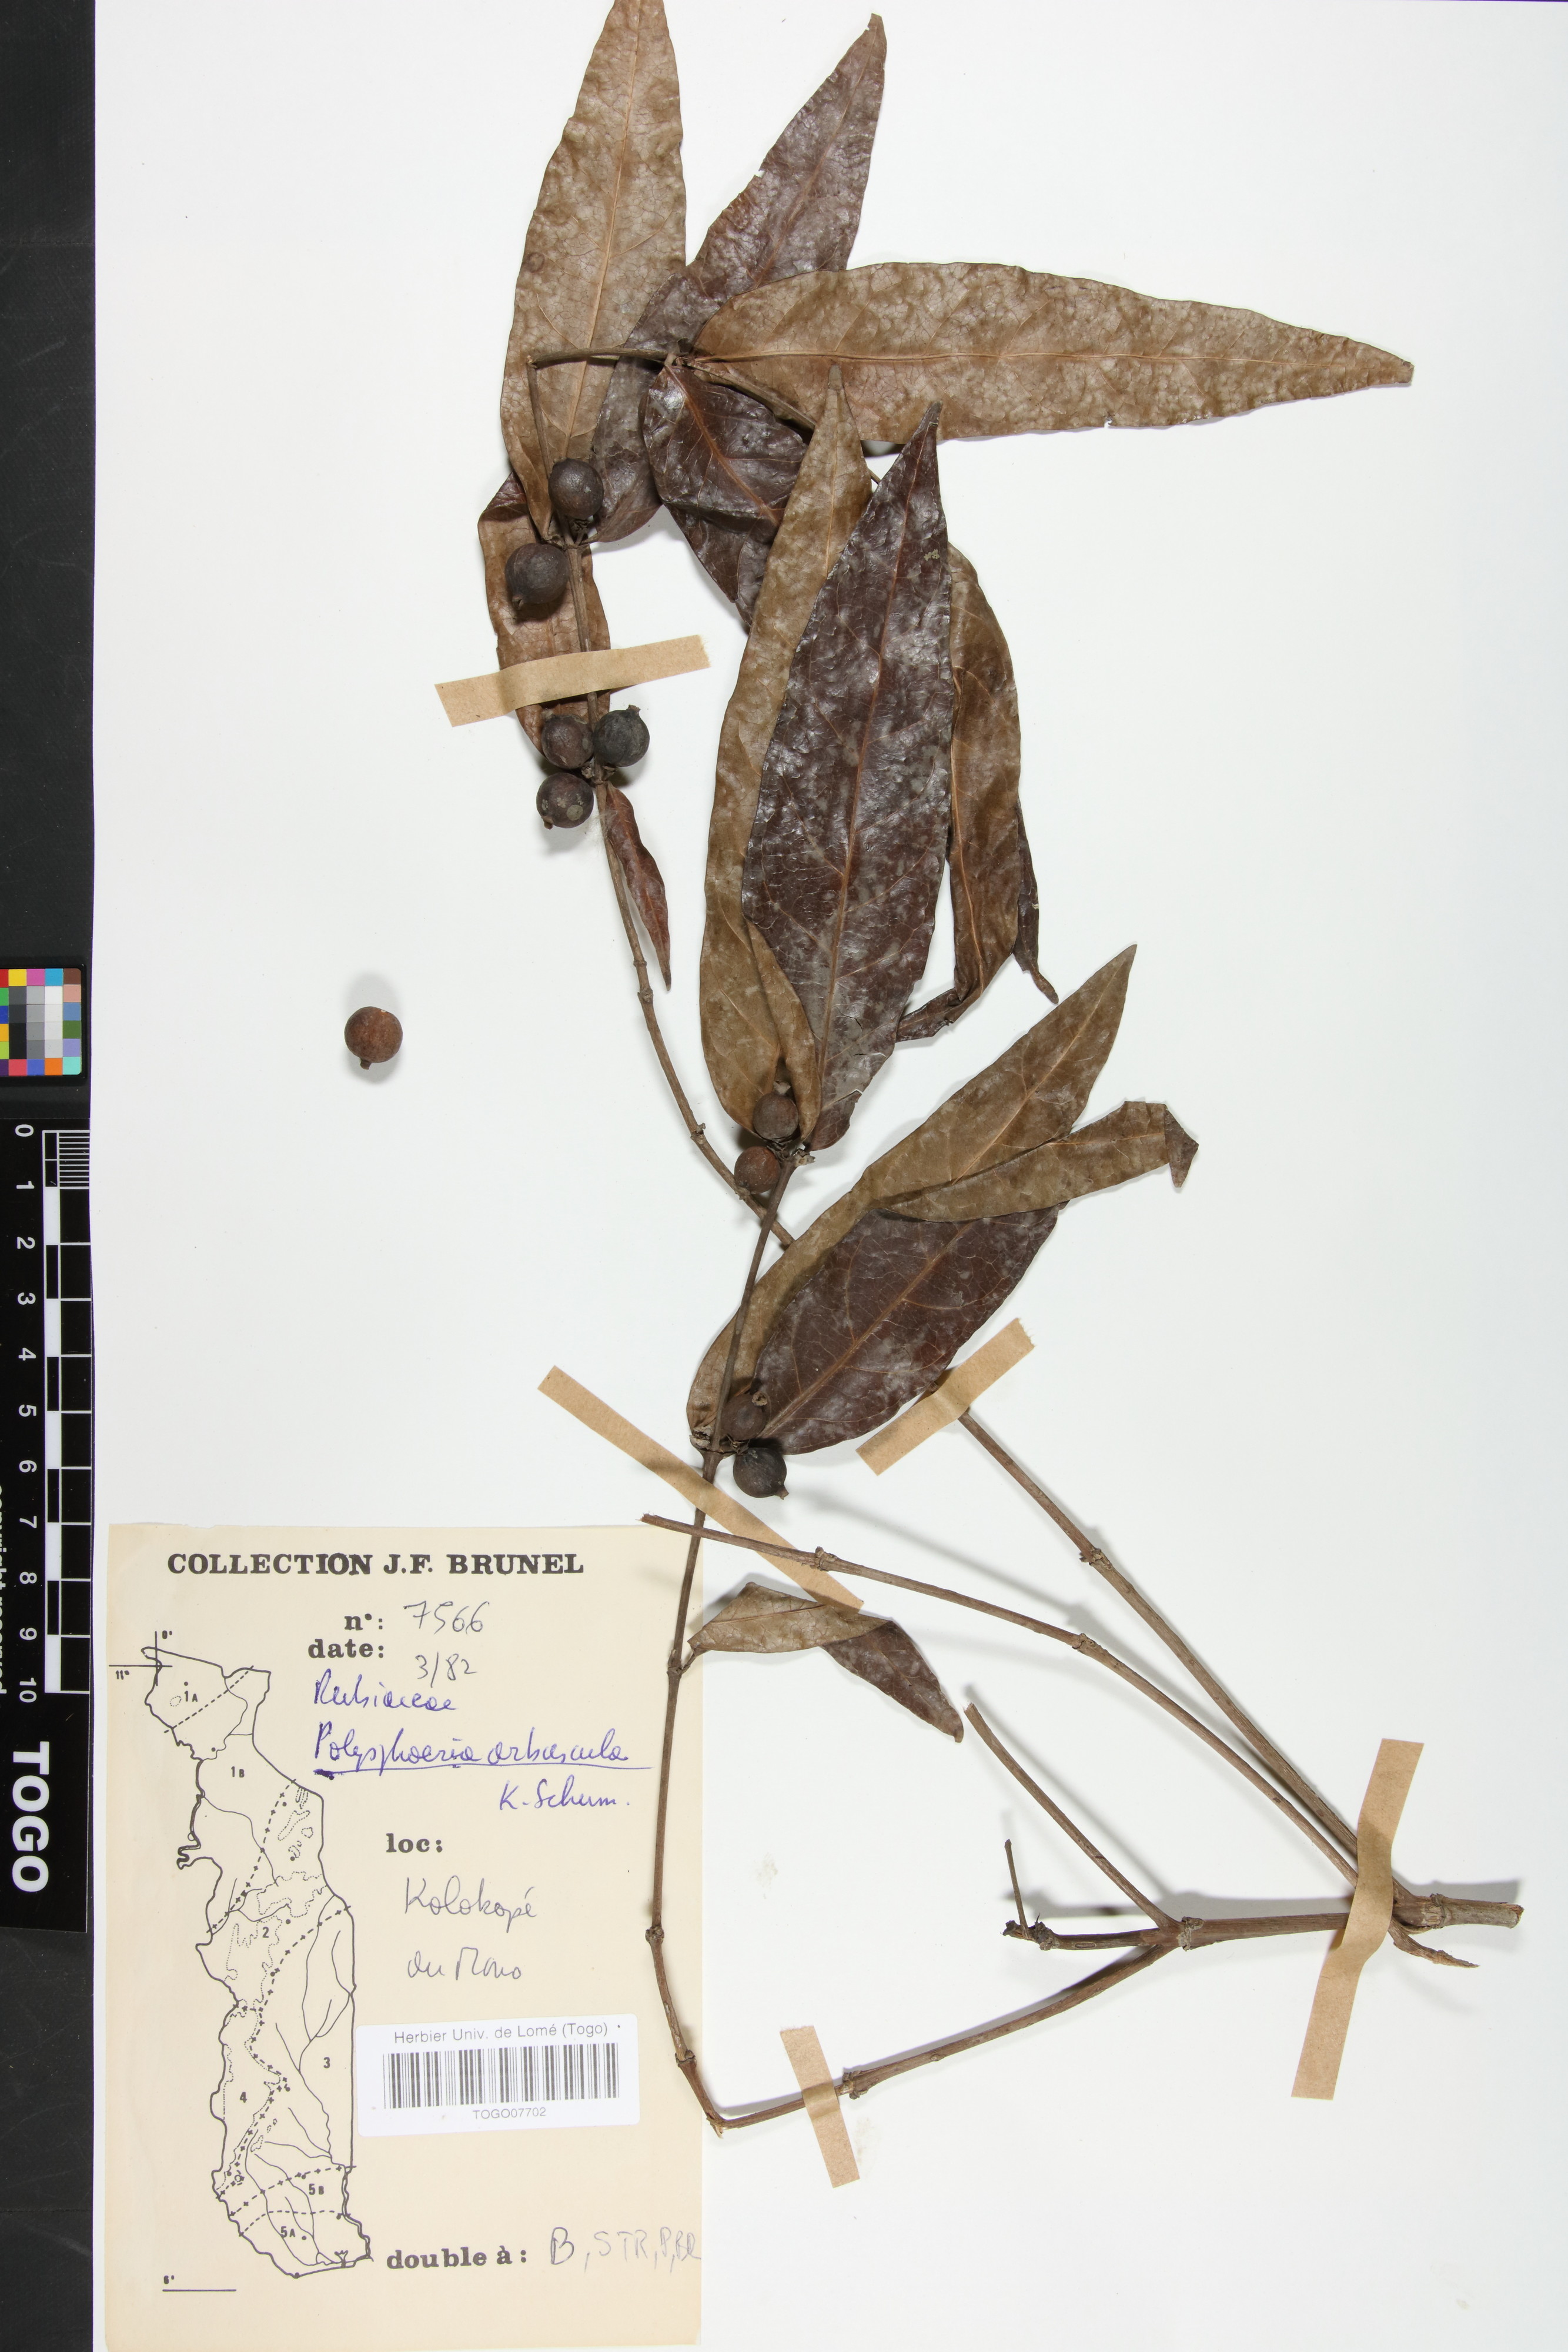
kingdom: Plantae
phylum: Tracheophyta
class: Magnoliopsida
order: Gentianales
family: Rubiaceae
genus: Polysphaeria
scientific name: Polysphaeria arbuscula
